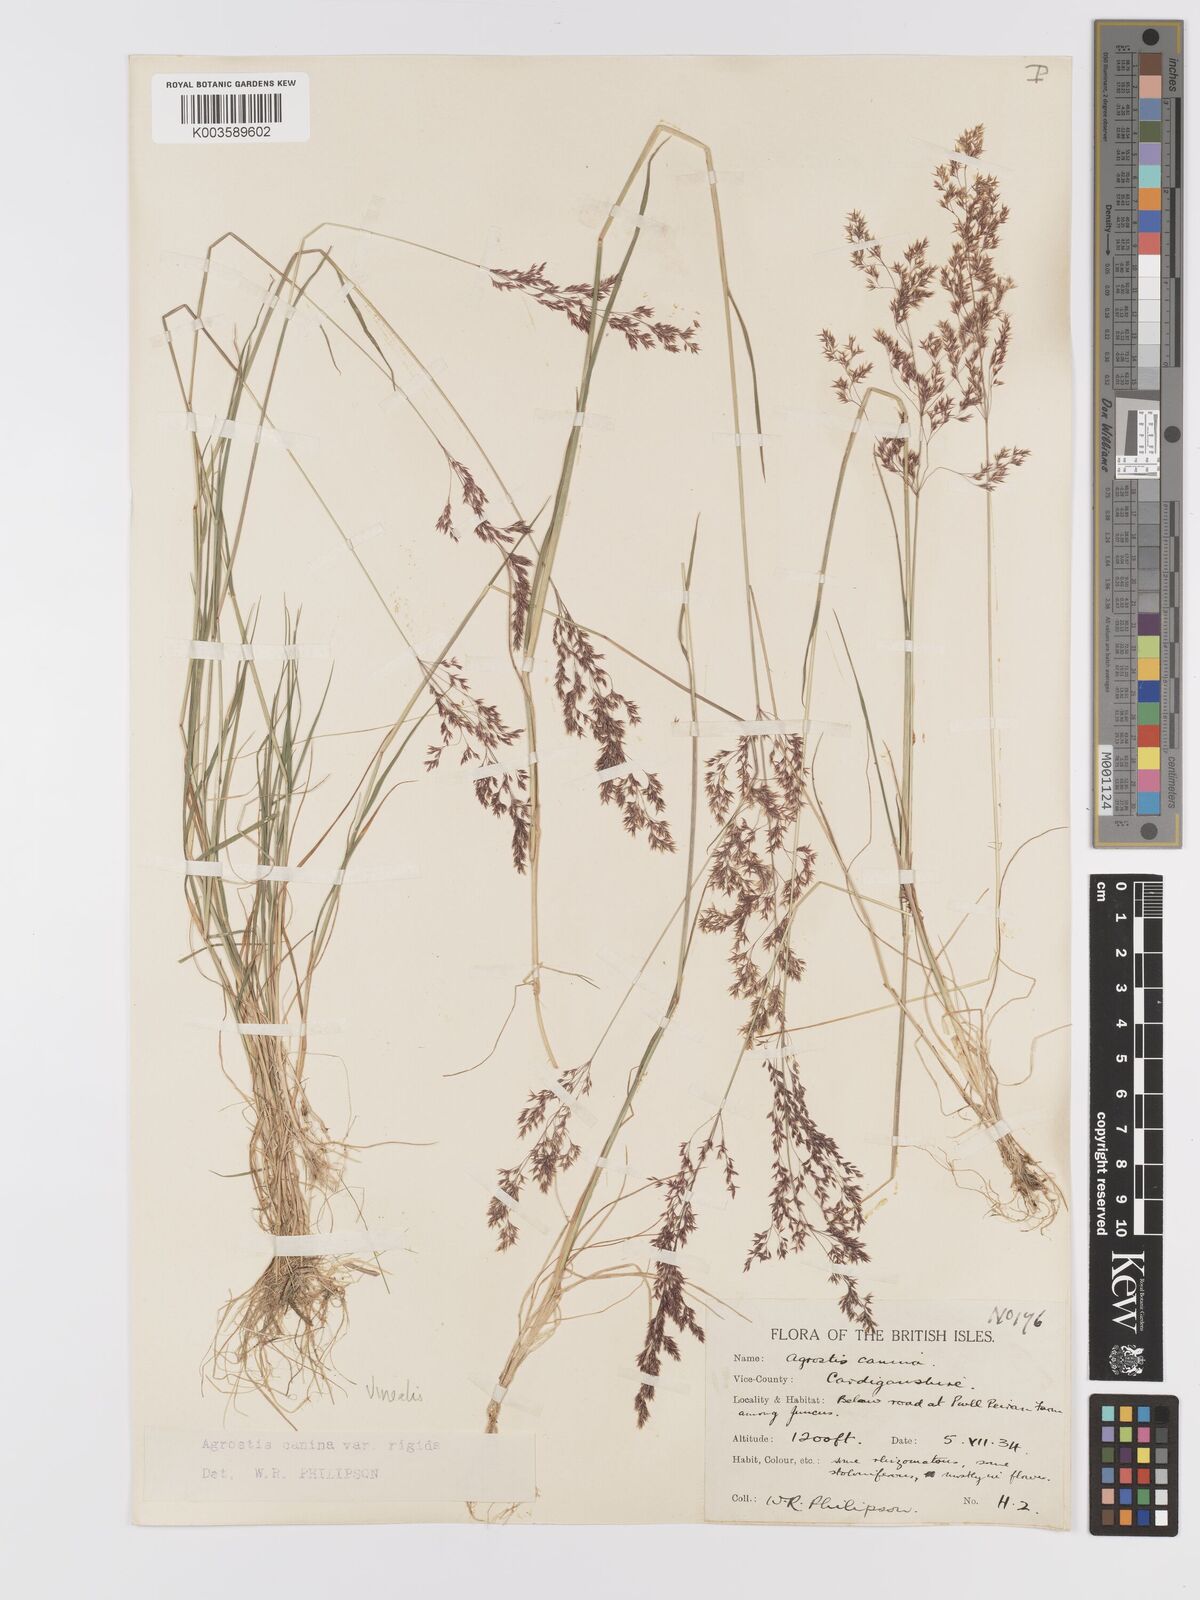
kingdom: Plantae
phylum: Tracheophyta
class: Liliopsida
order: Poales
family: Poaceae
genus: Agrostis
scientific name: Agrostis
